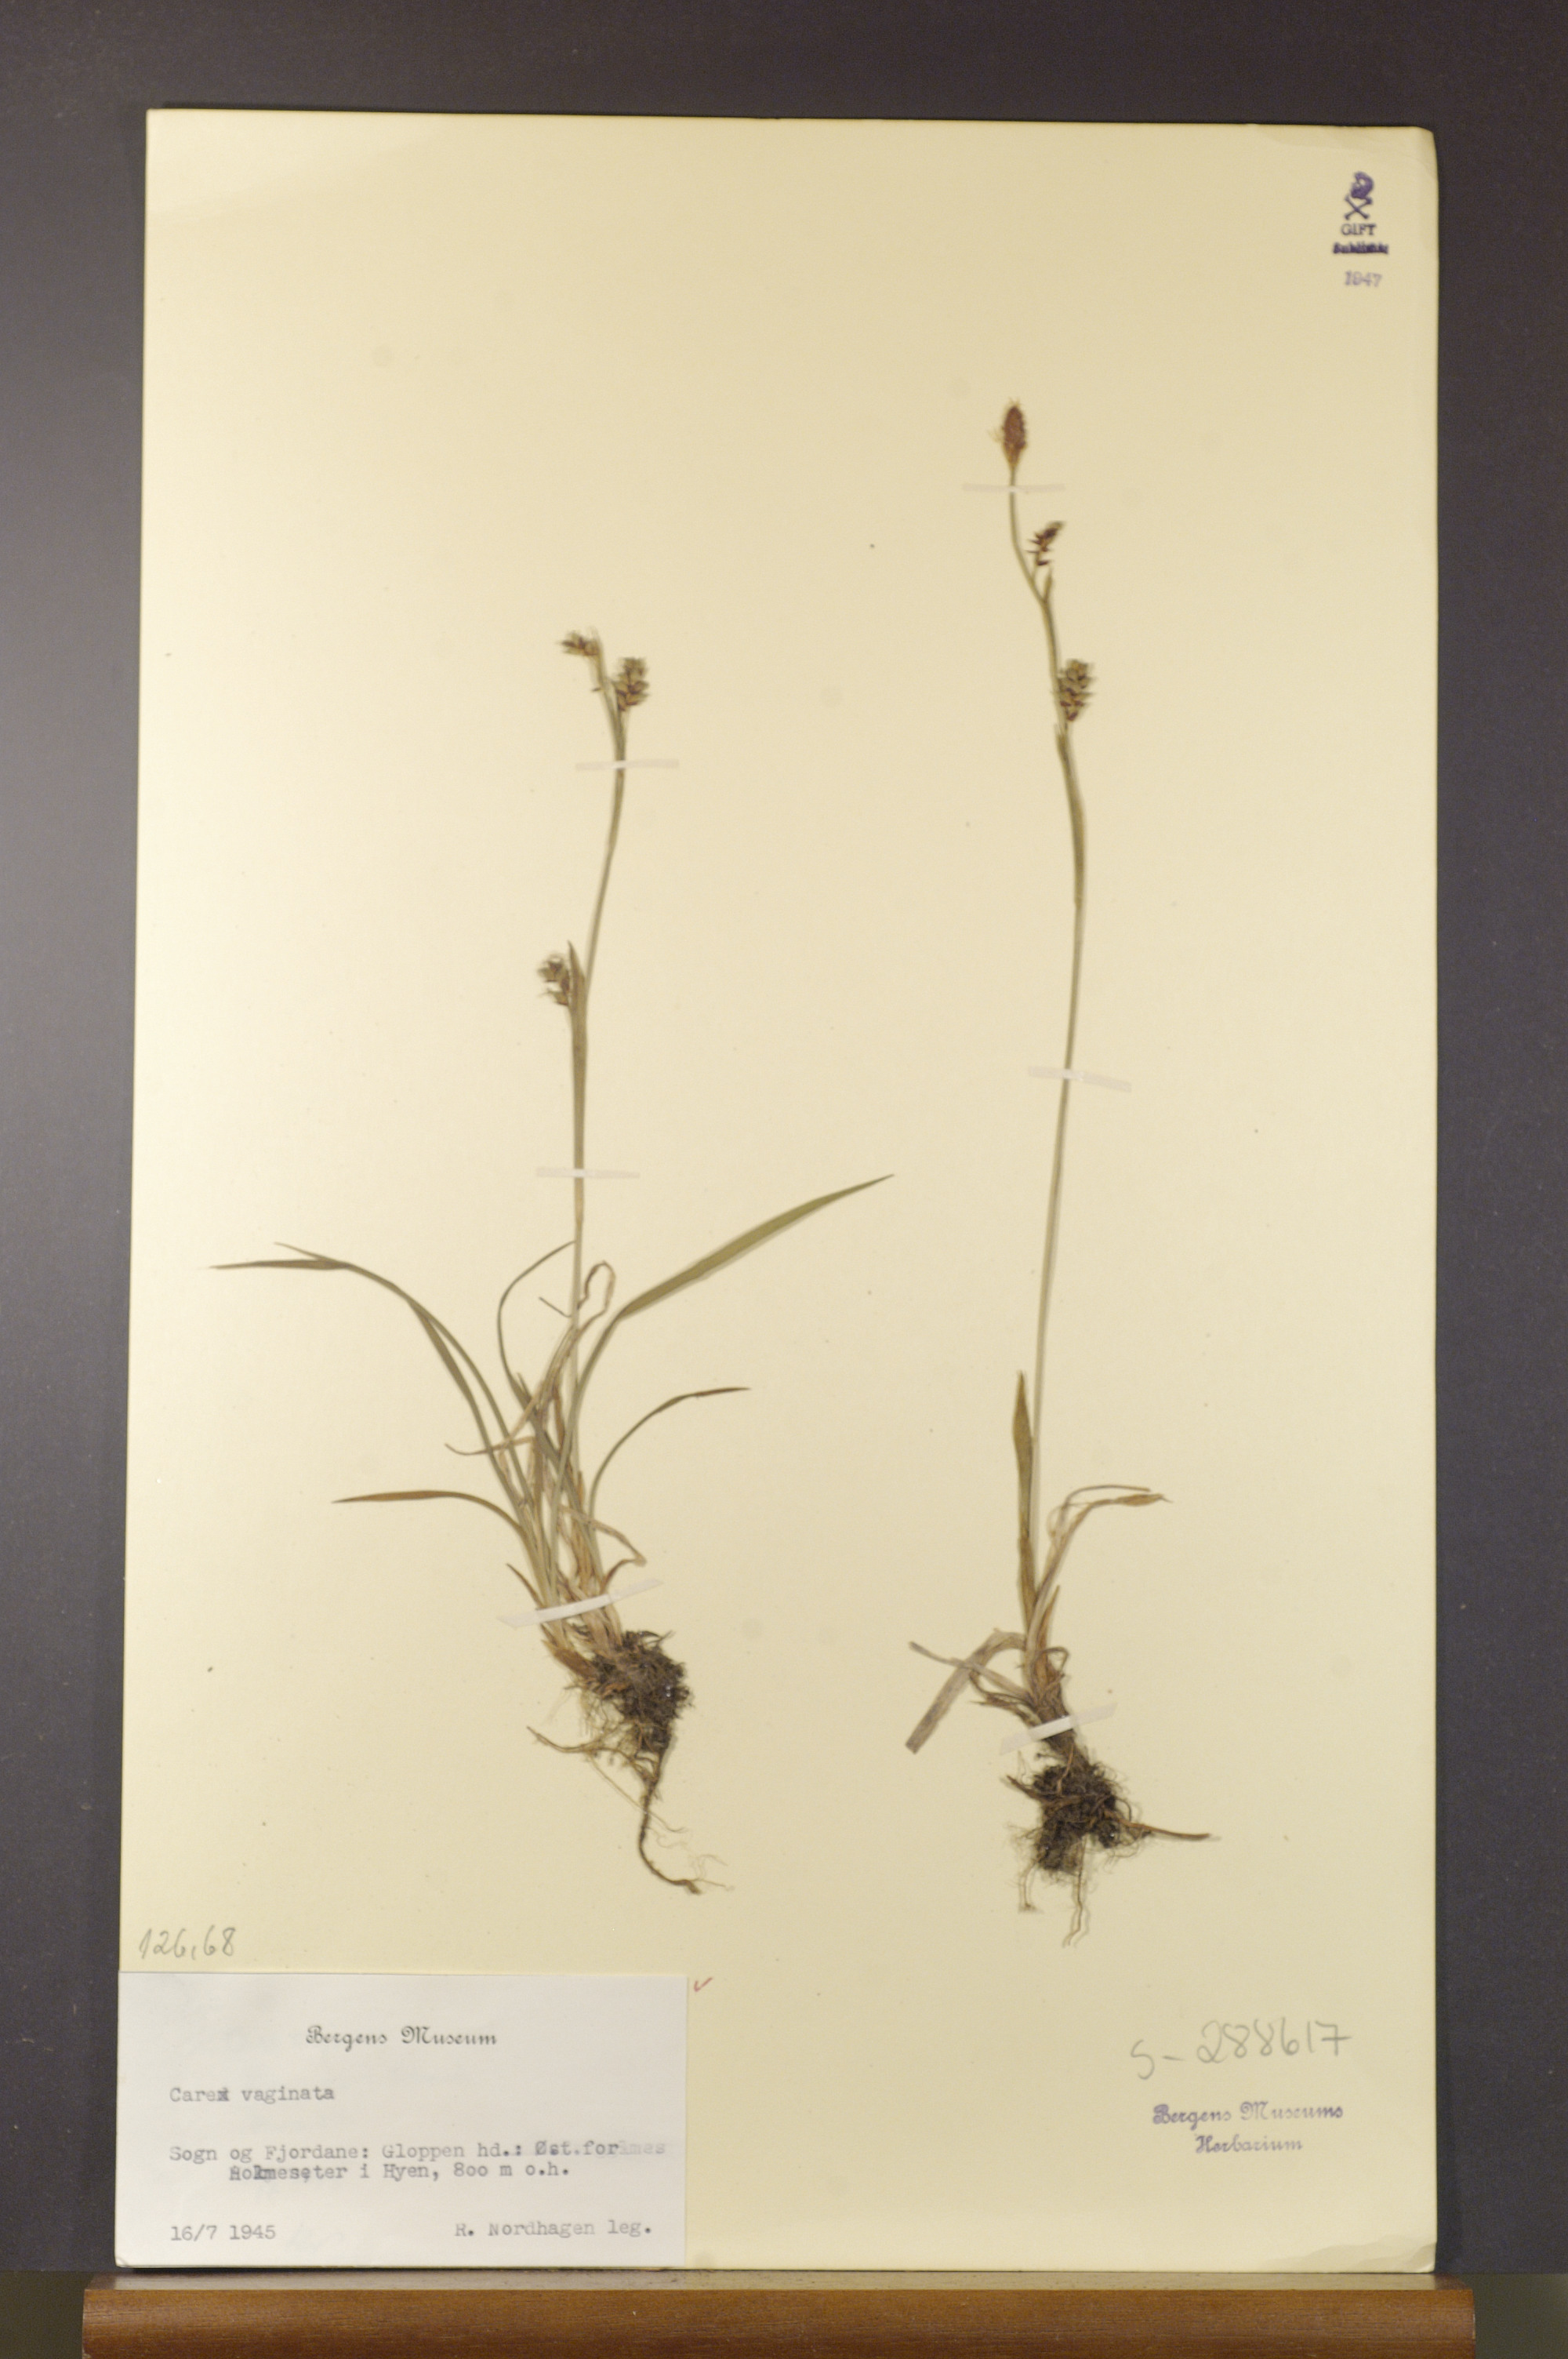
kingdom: Plantae
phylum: Tracheophyta
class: Liliopsida
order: Poales
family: Cyperaceae
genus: Carex
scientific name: Carex vaginata
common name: Sheathed sedge
